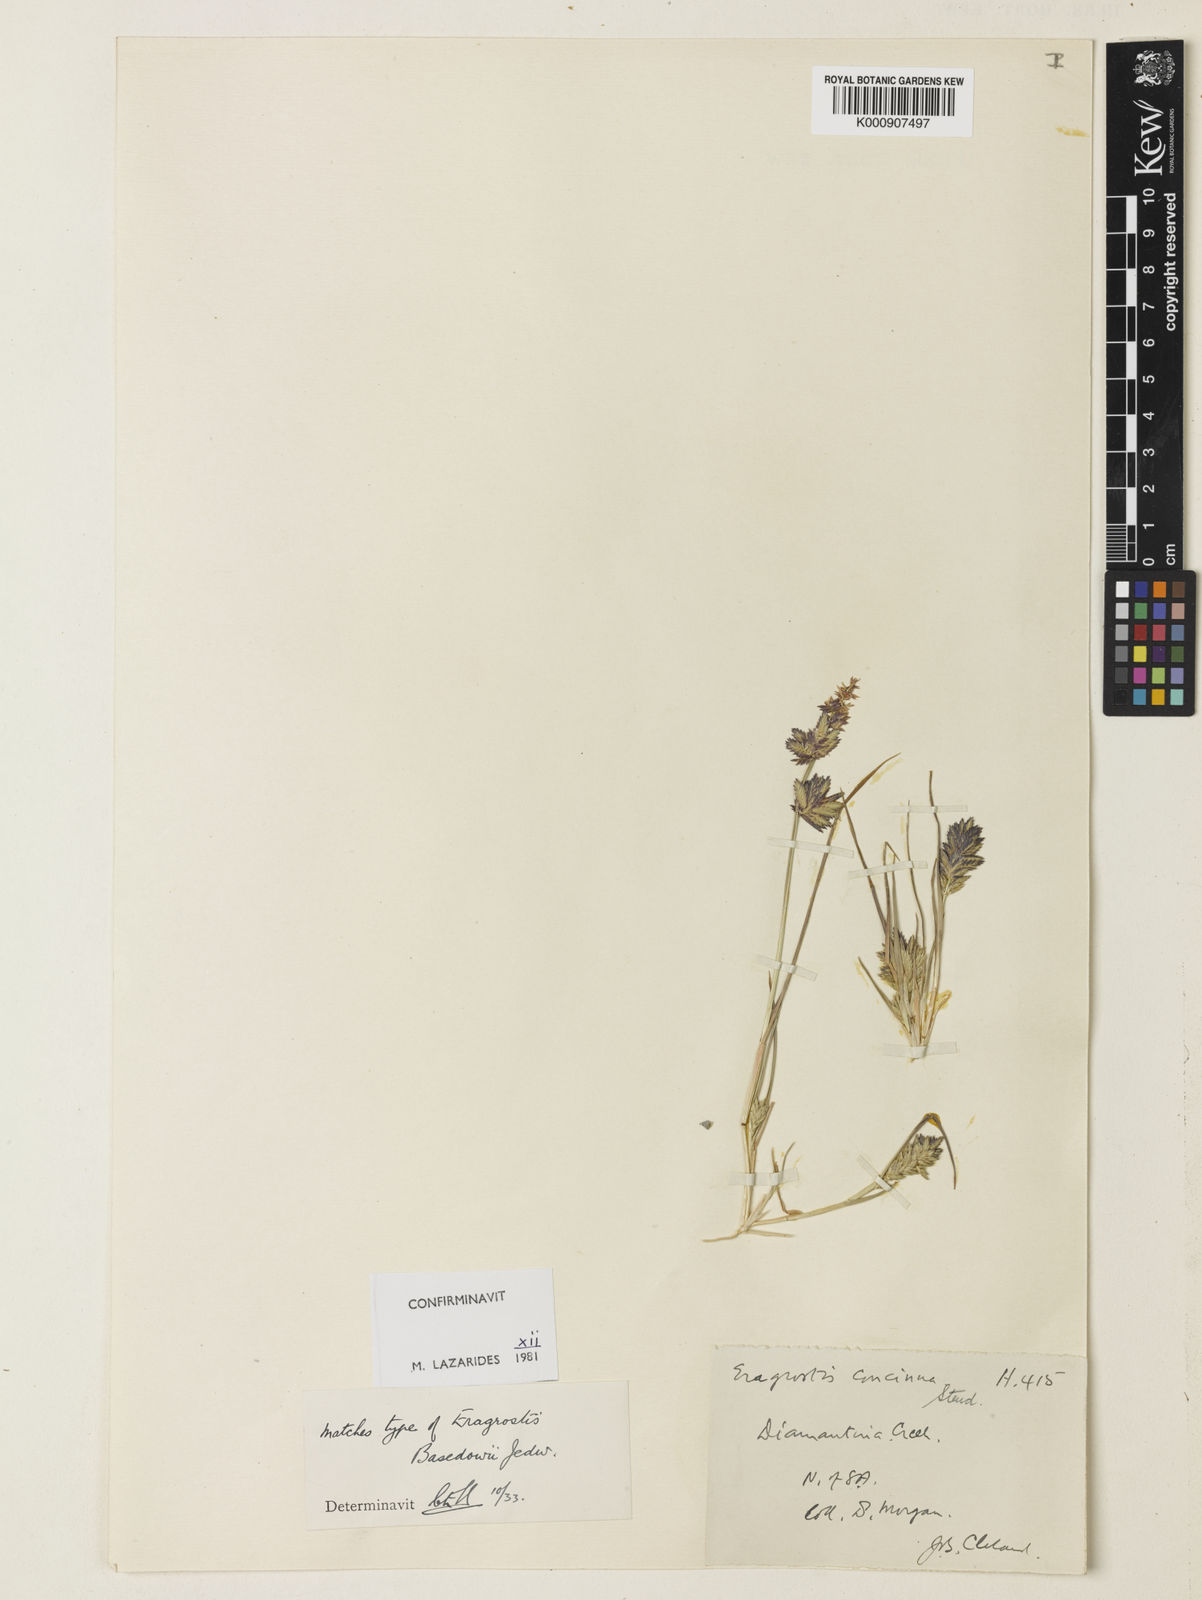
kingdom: Plantae
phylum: Tracheophyta
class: Liliopsida
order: Poales
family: Poaceae
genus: Eragrostis
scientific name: Eragrostis basedowii
